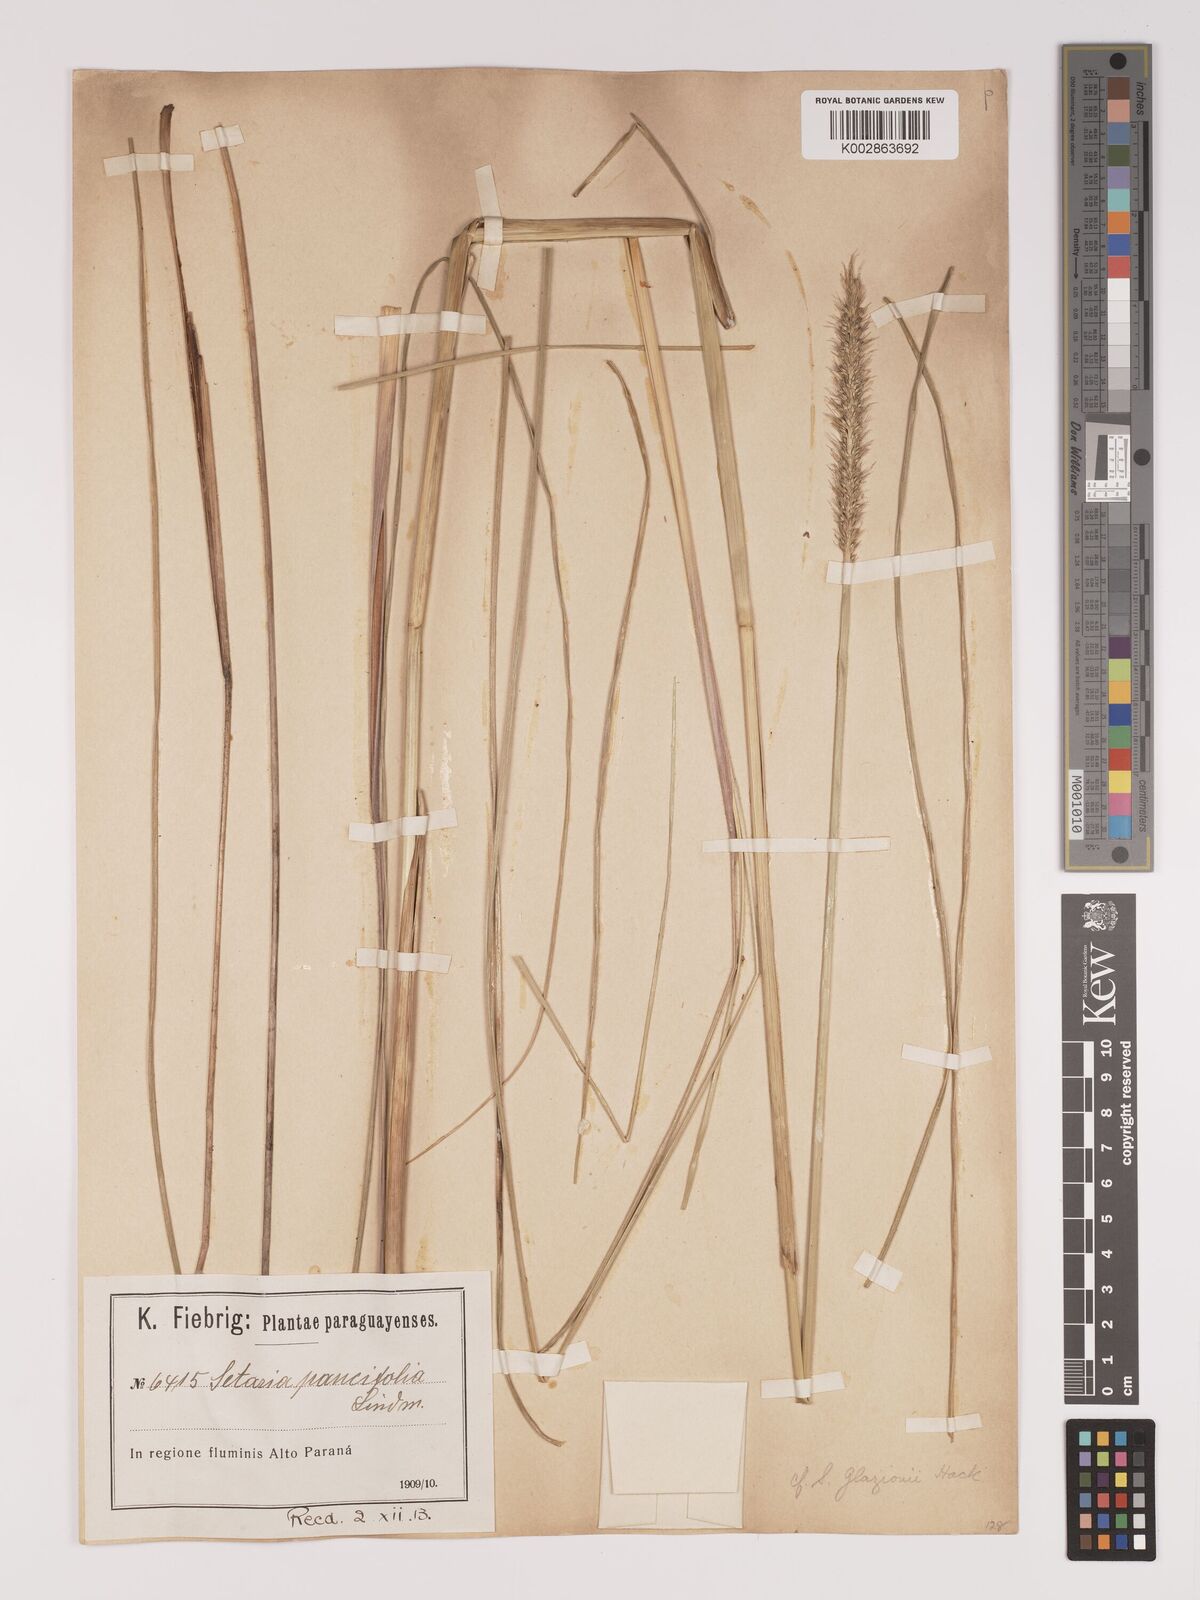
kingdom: Plantae
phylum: Tracheophyta
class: Liliopsida
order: Poales
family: Poaceae
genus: Setaria
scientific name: Setaria paucifolia
